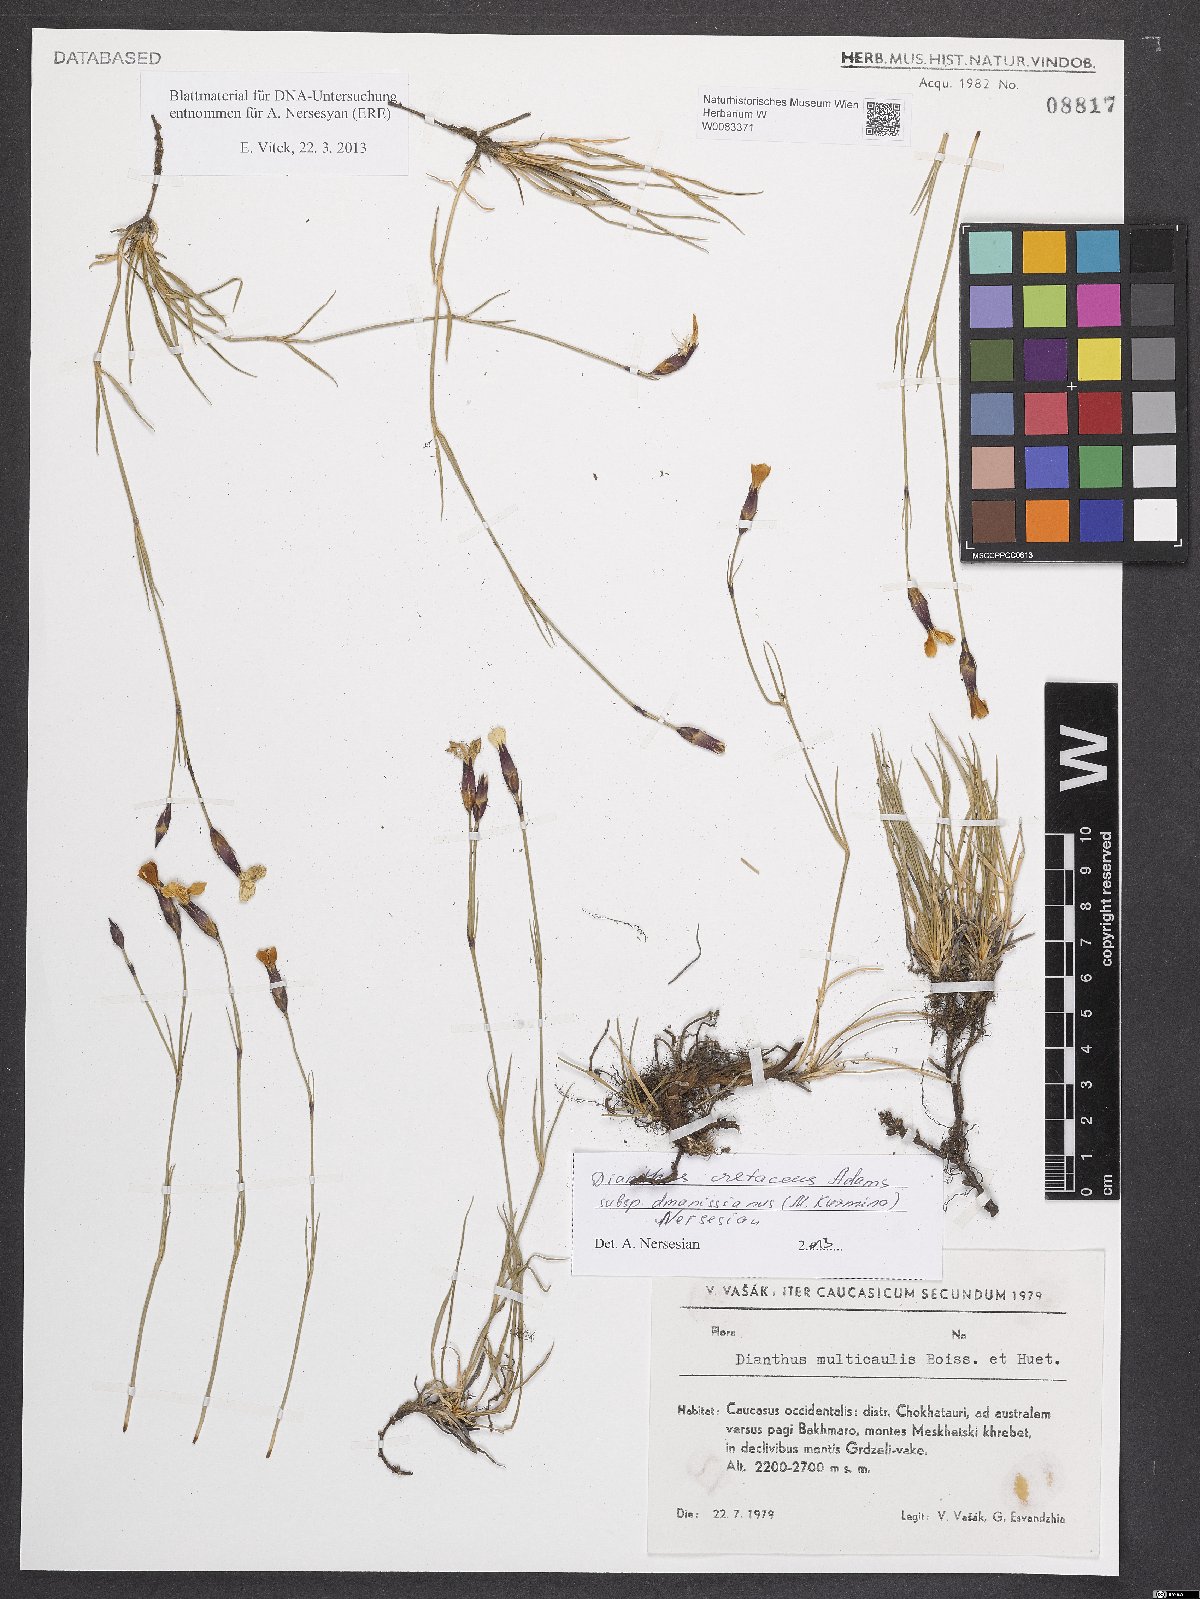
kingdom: Plantae
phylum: Tracheophyta
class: Magnoliopsida
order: Caryophyllales
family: Caryophyllaceae
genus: Dianthus
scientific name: Dianthus cretaceus
